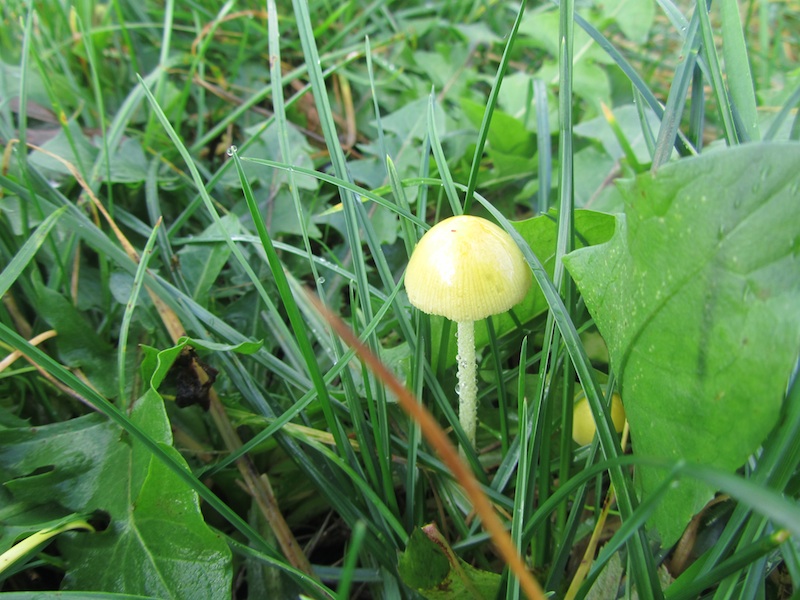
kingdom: Fungi
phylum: Basidiomycota
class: Agaricomycetes
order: Agaricales
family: Bolbitiaceae
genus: Bolbitius
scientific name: Bolbitius titubans
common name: almindelig gulhat
